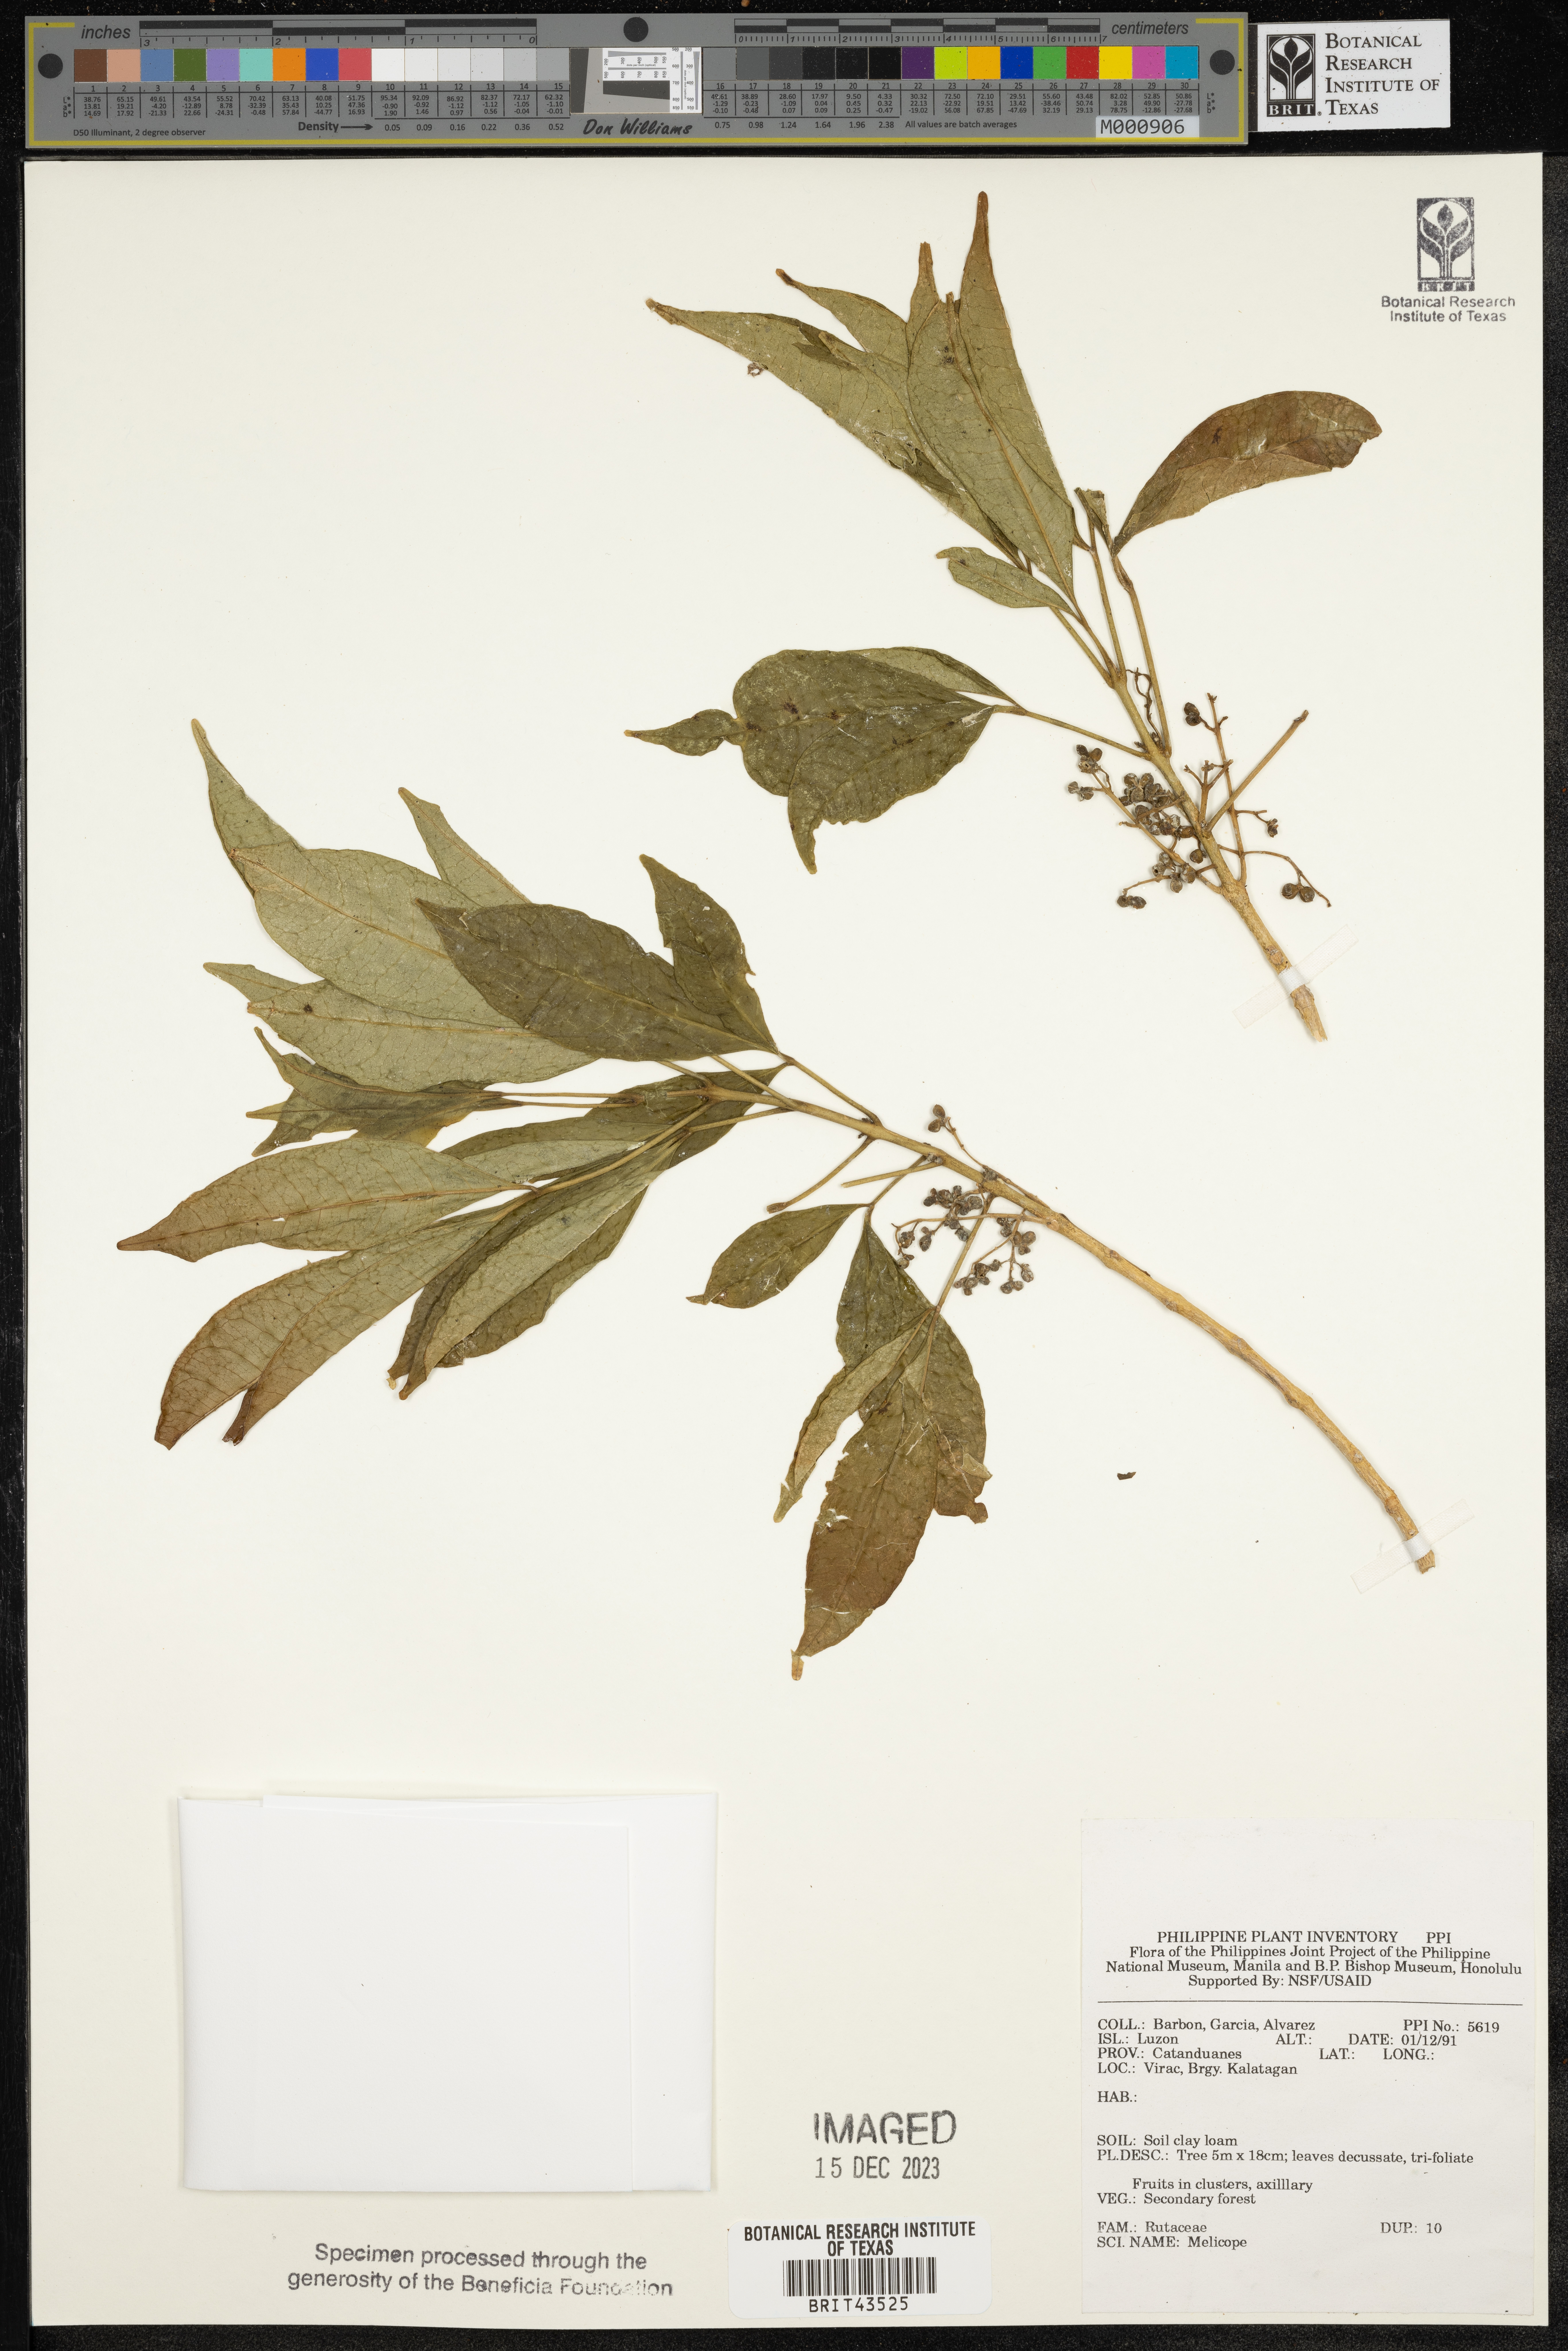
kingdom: Plantae
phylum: Tracheophyta
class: Magnoliopsida
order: Sapindales
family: Rutaceae
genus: Melicope
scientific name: Melicope
